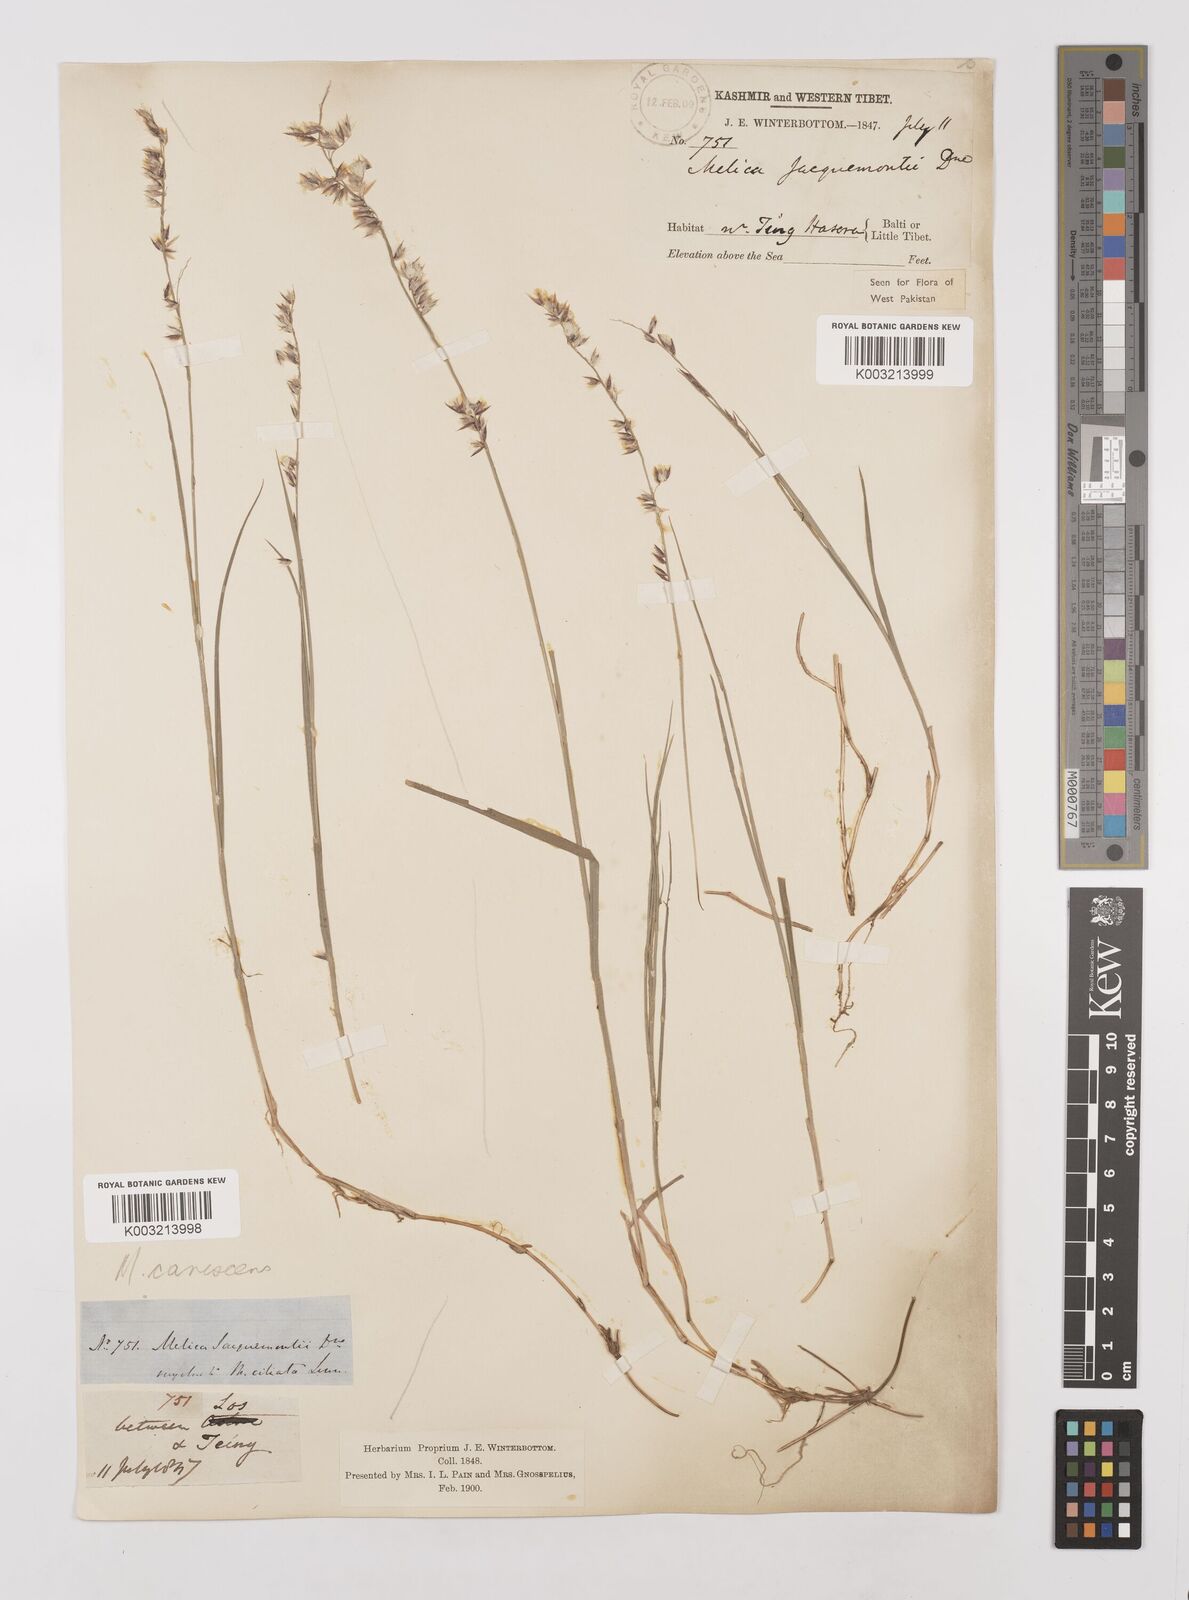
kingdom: Plantae
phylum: Tracheophyta
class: Liliopsida
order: Poales
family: Poaceae
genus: Melica
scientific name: Melica persica
